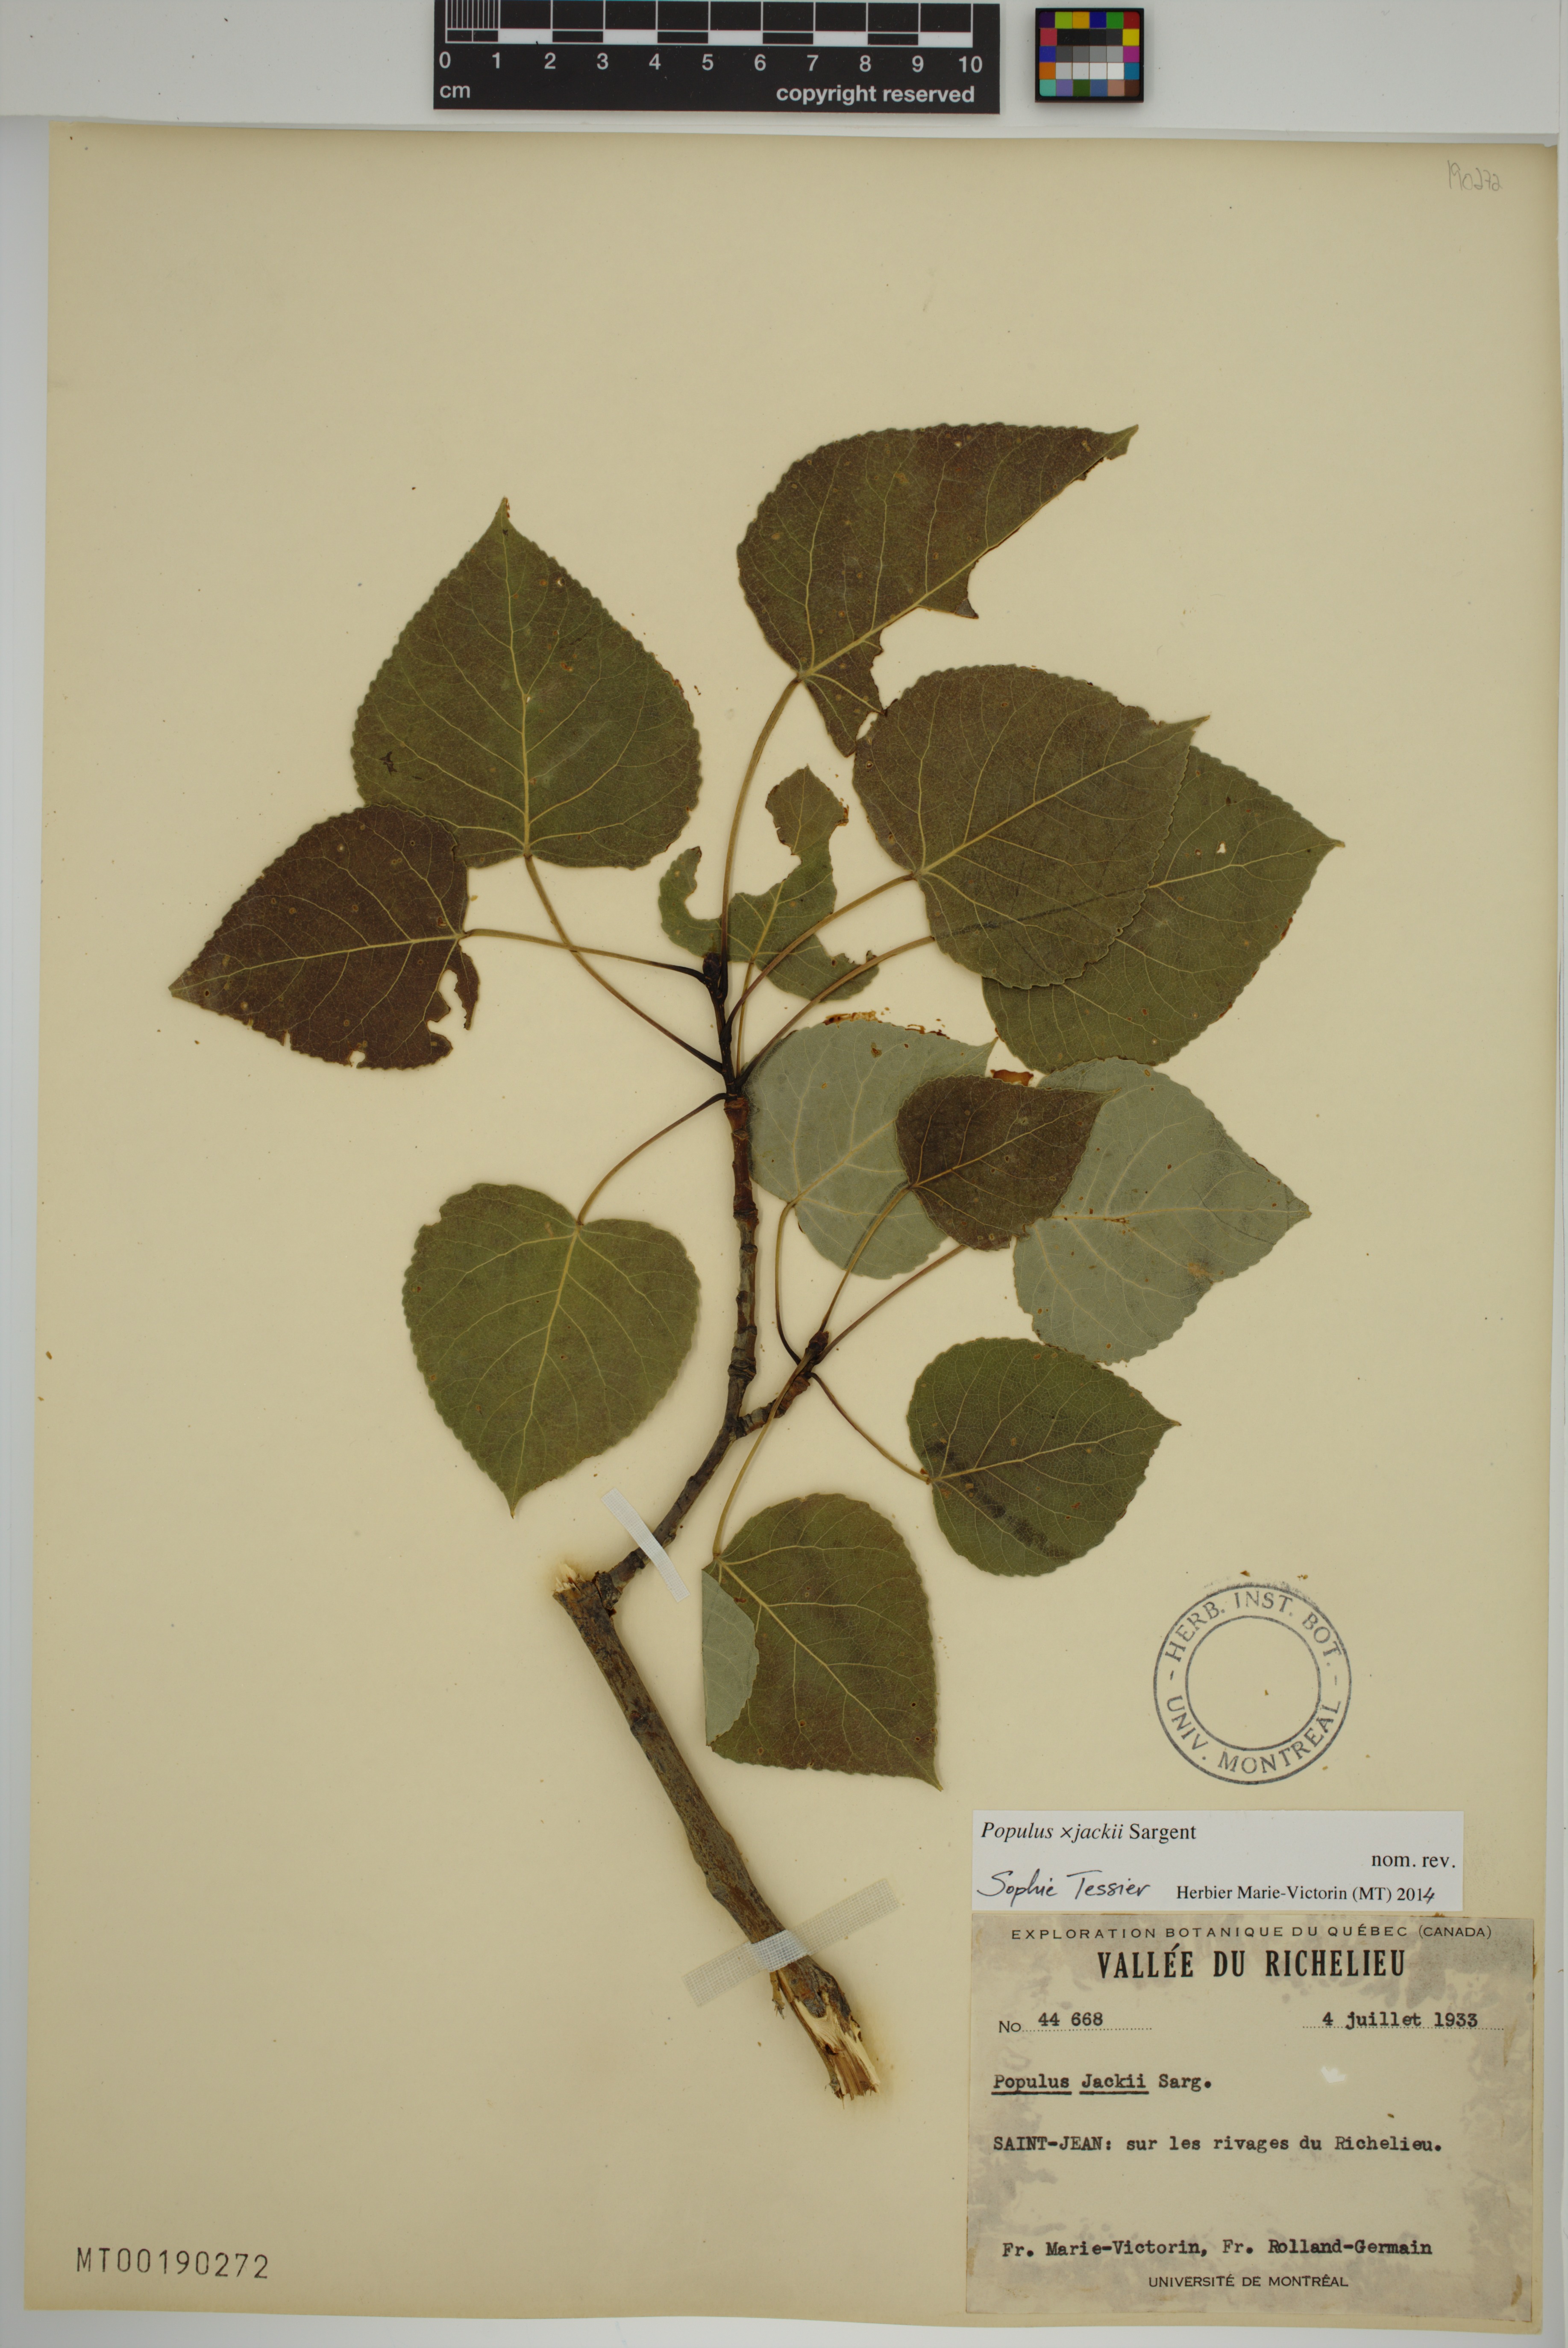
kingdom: Plantae
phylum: Tracheophyta
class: Magnoliopsida
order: Malpighiales
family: Salicaceae
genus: Populus
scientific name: Populus jackii
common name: Balm-of-gilead
